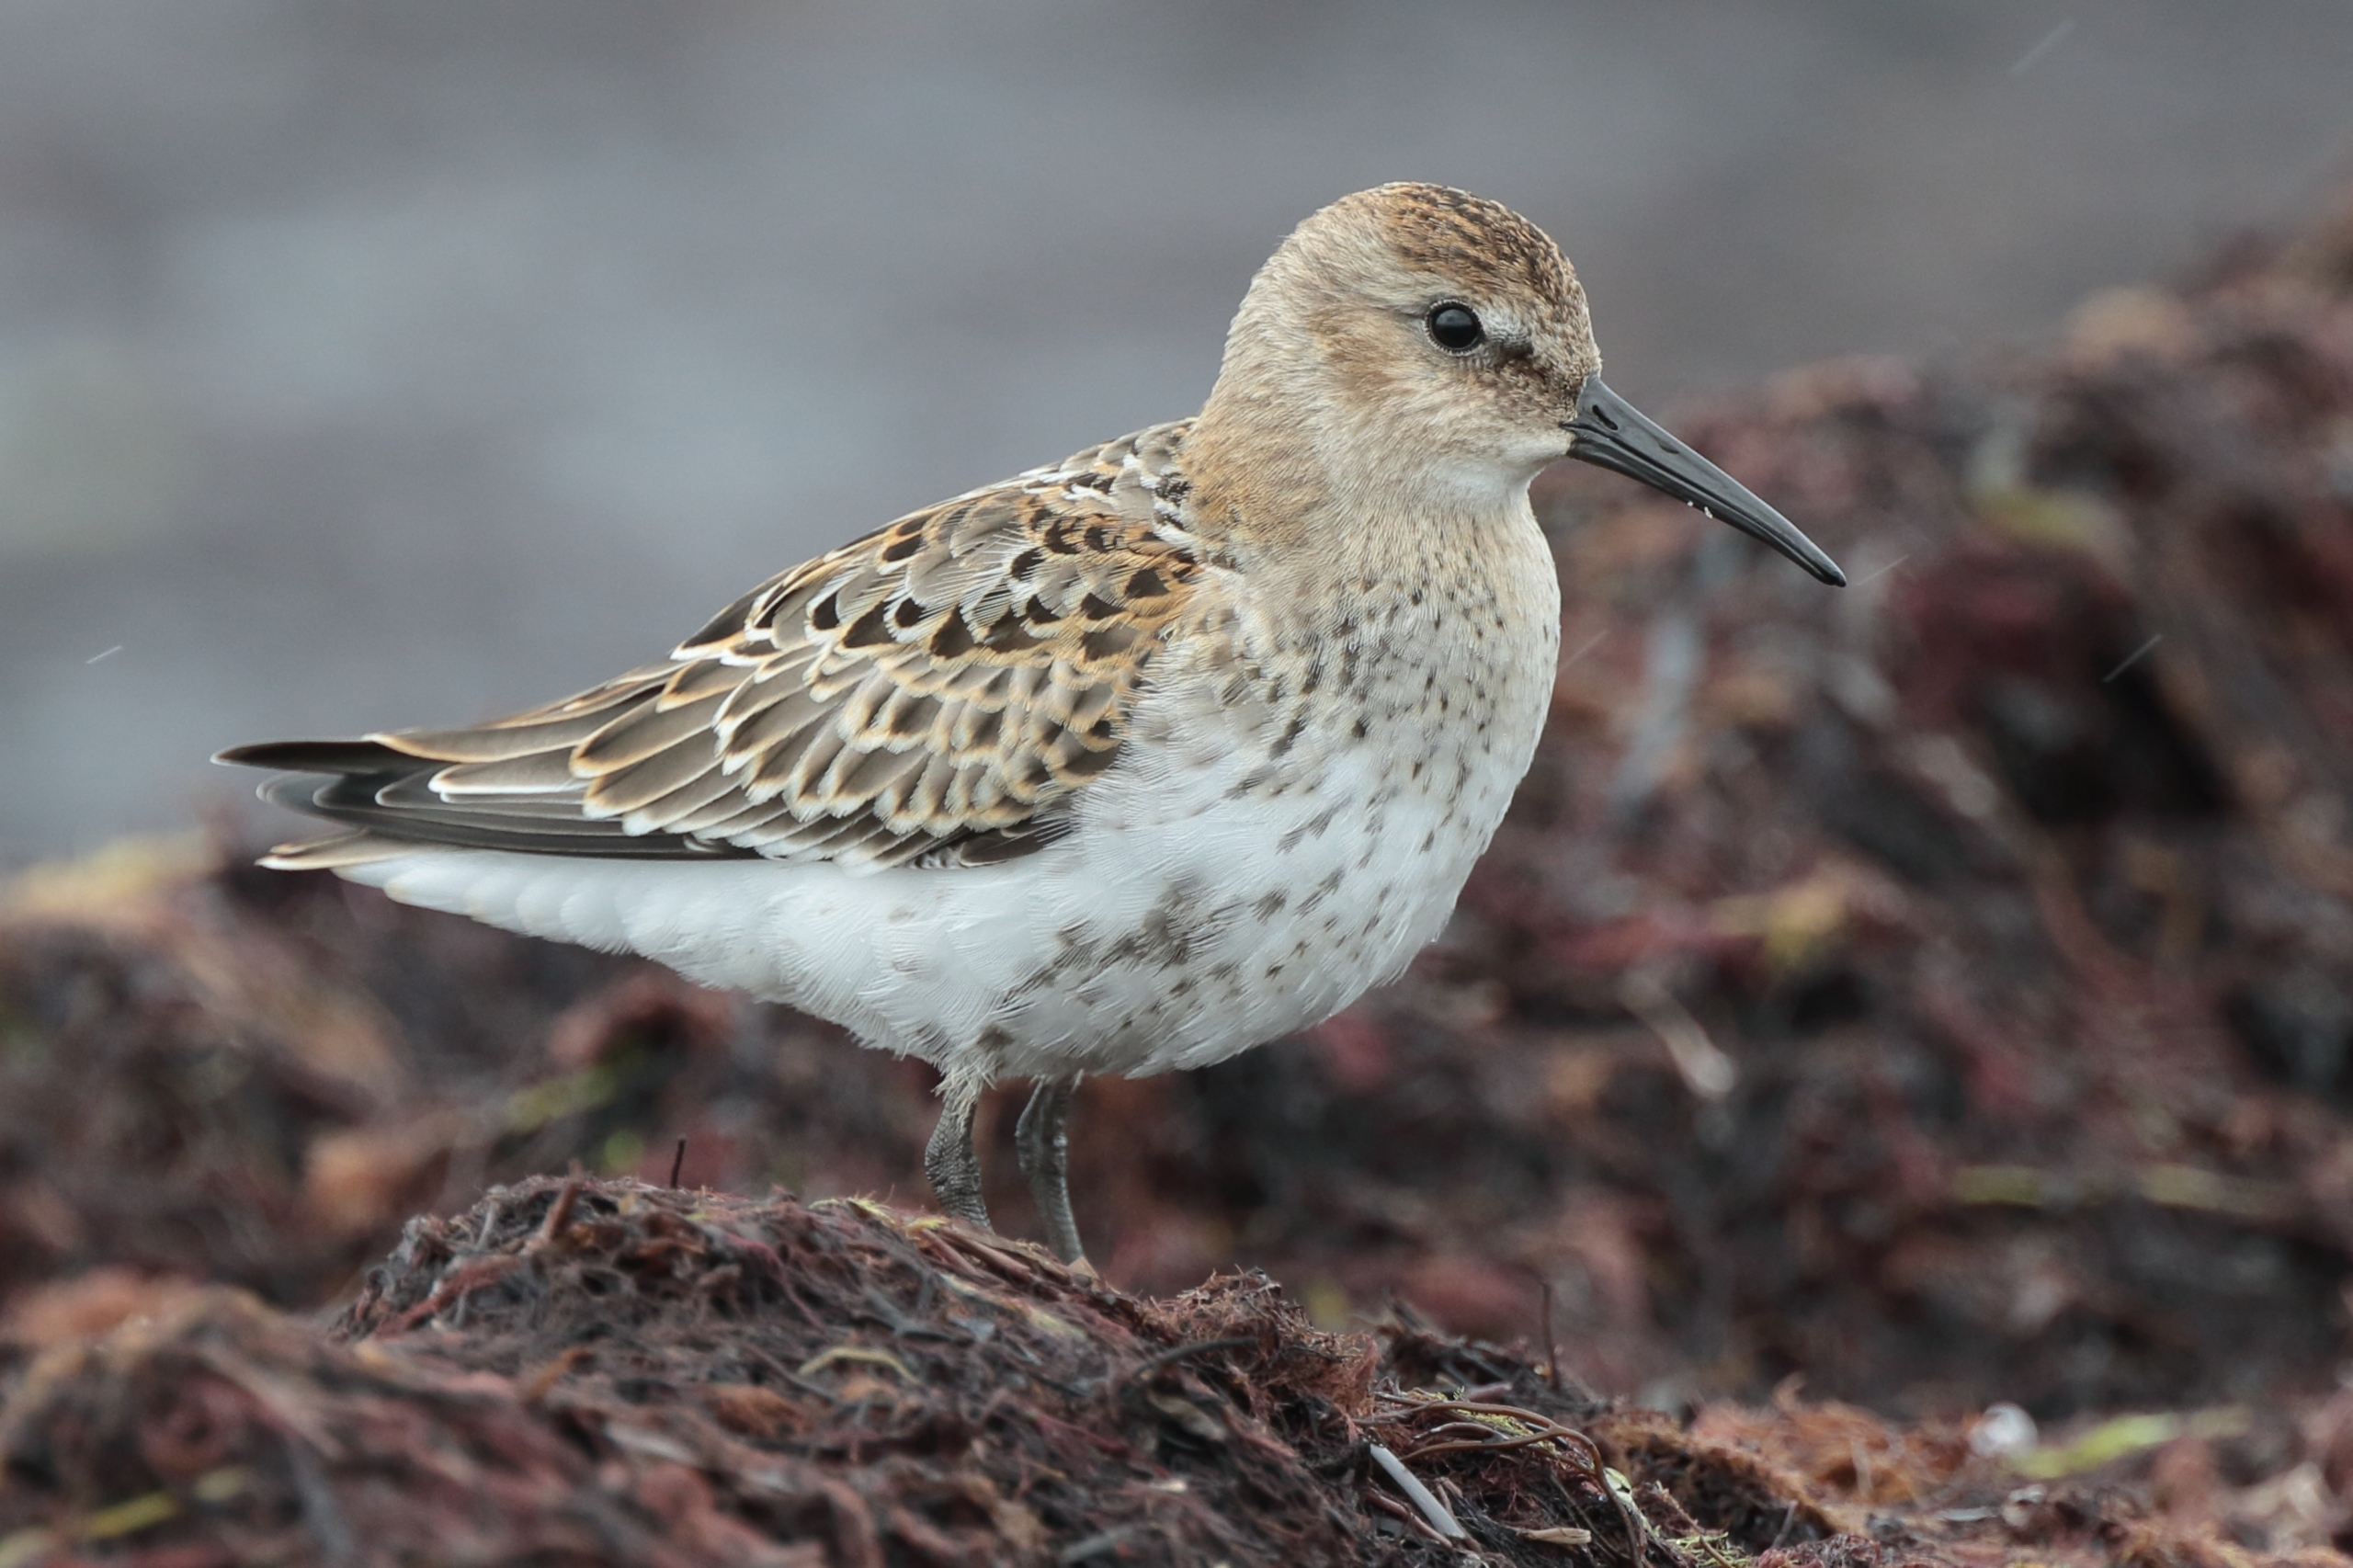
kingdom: Animalia
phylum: Chordata
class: Aves
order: Charadriiformes
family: Scolopacidae
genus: Calidris
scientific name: Calidris alpina
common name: Almindelig ryle
